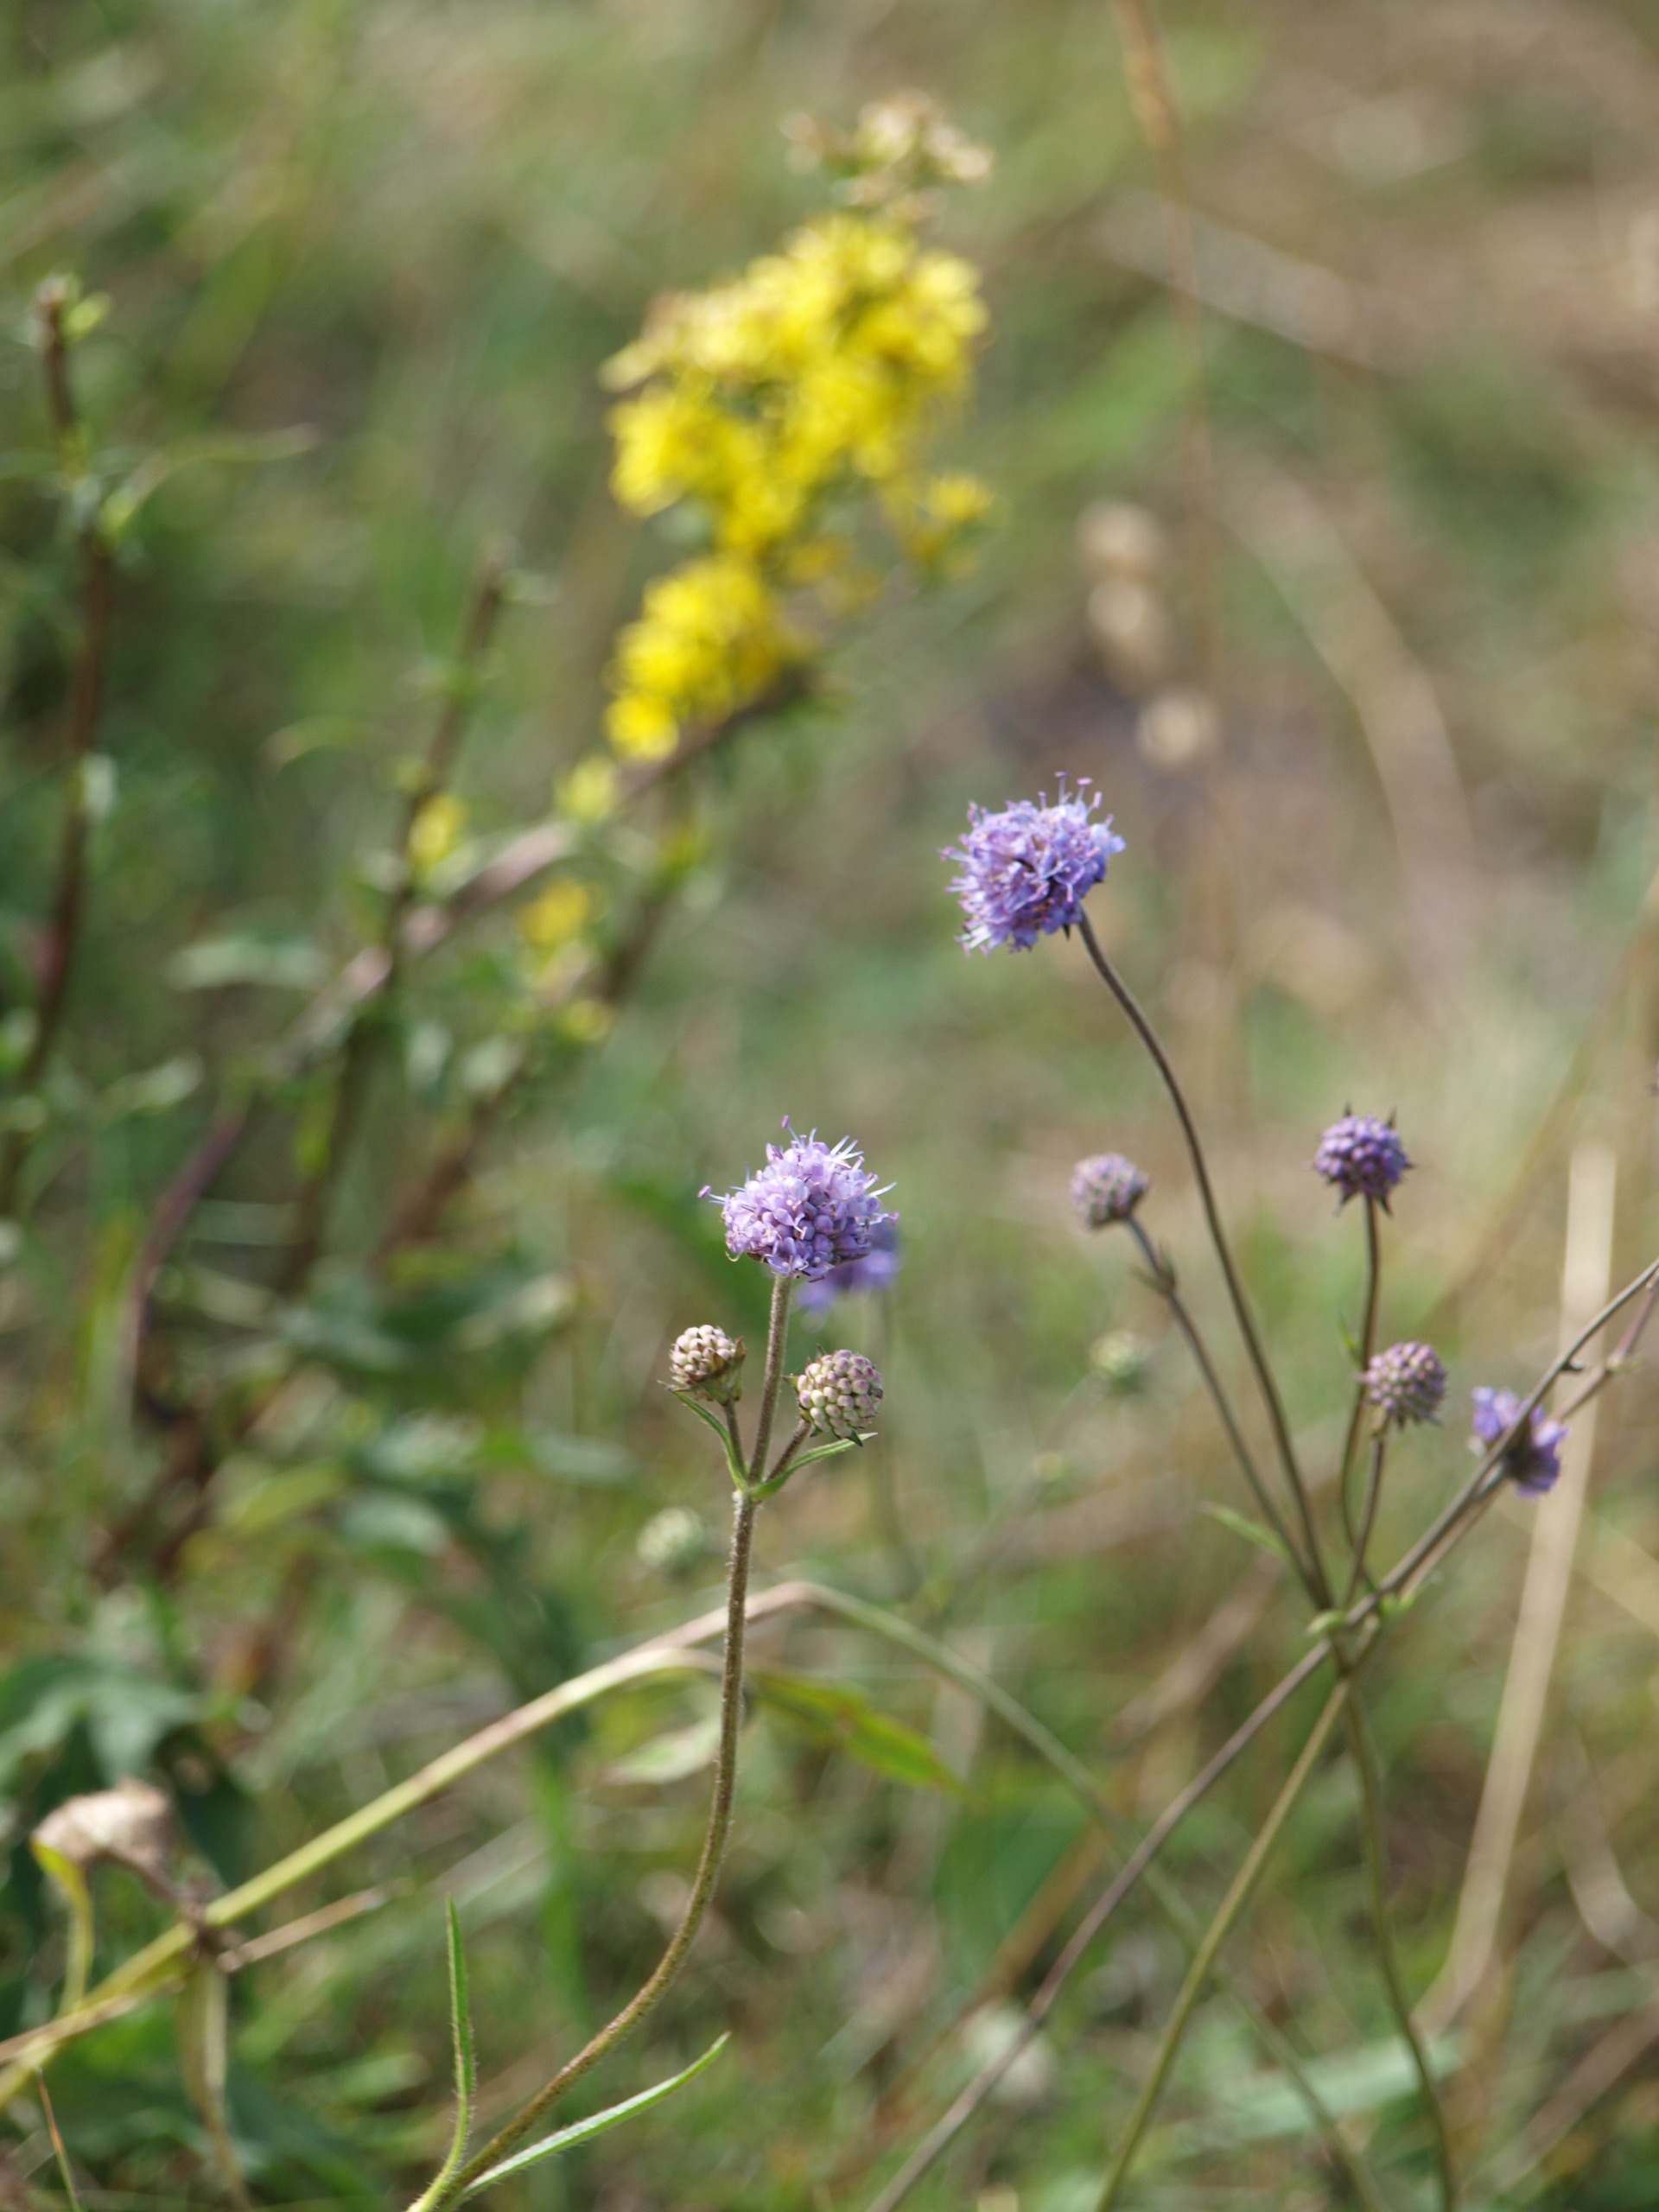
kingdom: Plantae
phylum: Tracheophyta
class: Magnoliopsida
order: Asterales
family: Asteraceae
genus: Solidago
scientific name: Solidago virgaurea
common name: Almindelig gyldenris
